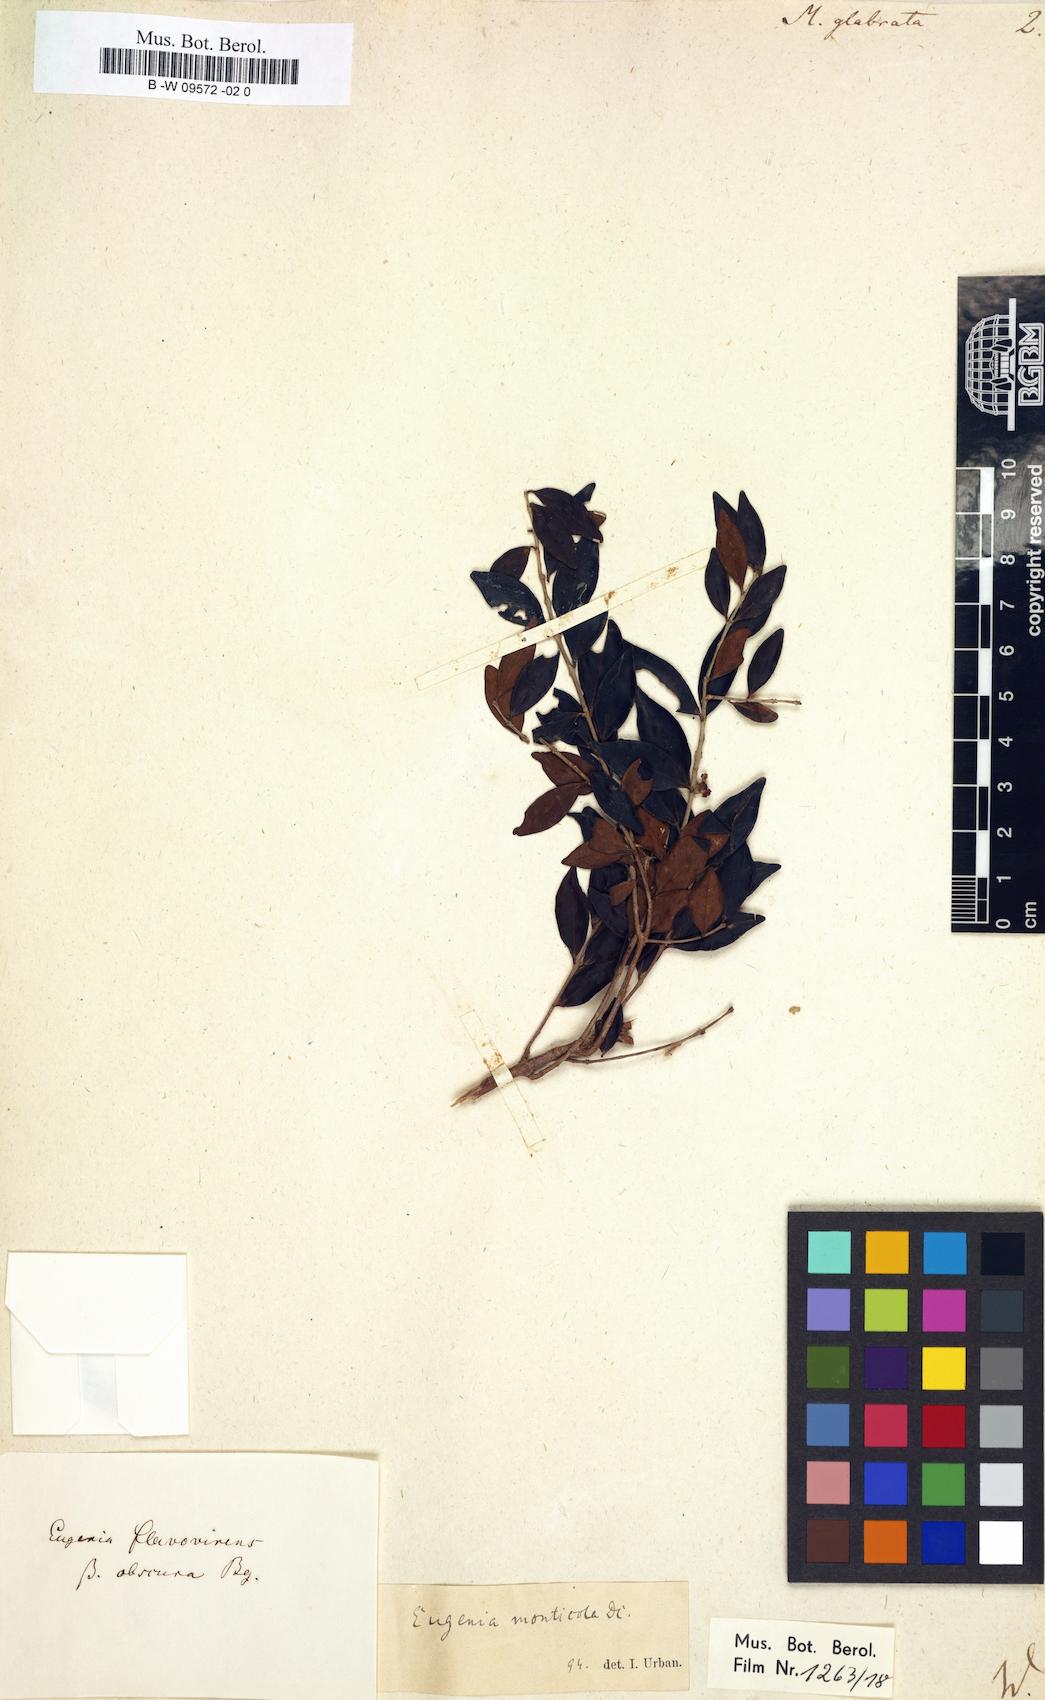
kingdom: Plantae
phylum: Tracheophyta
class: Magnoliopsida
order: Myrtales
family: Myrtaceae
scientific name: Myrtaceae
